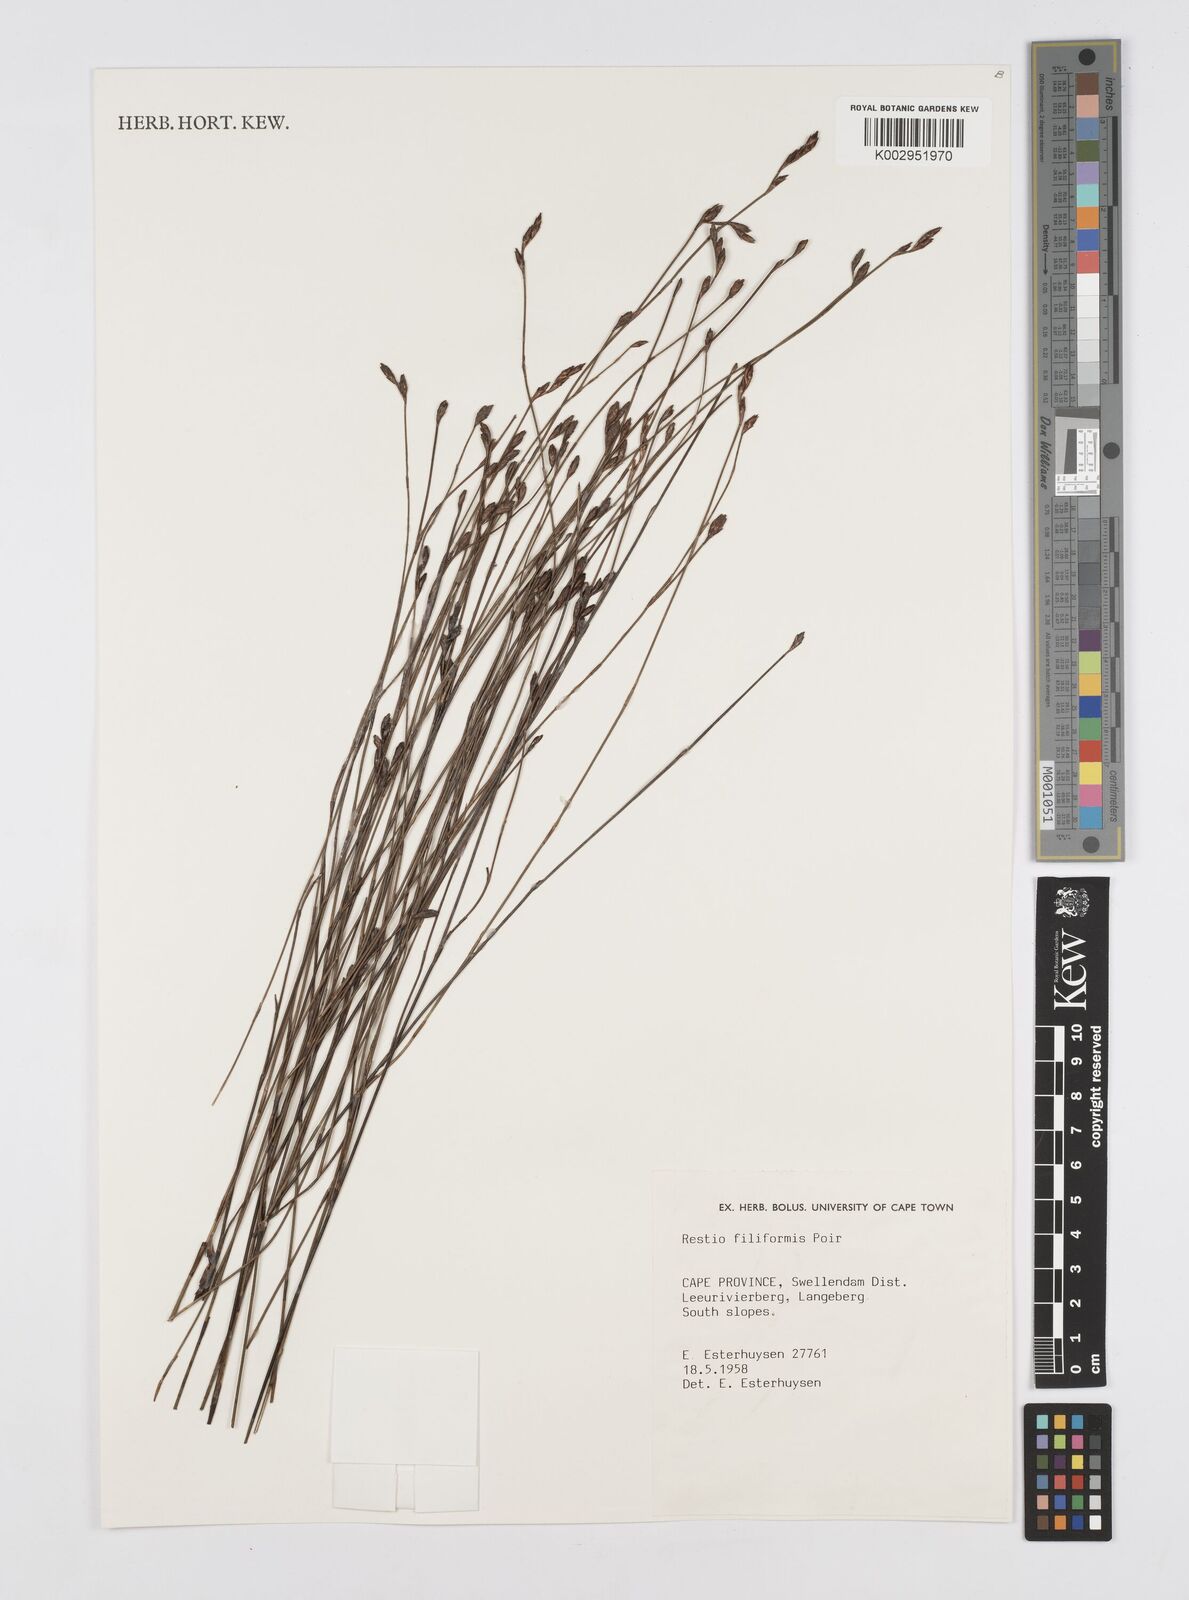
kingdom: Plantae
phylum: Tracheophyta
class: Liliopsida
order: Poales
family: Restionaceae
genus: Restio
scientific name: Restio filiformis
